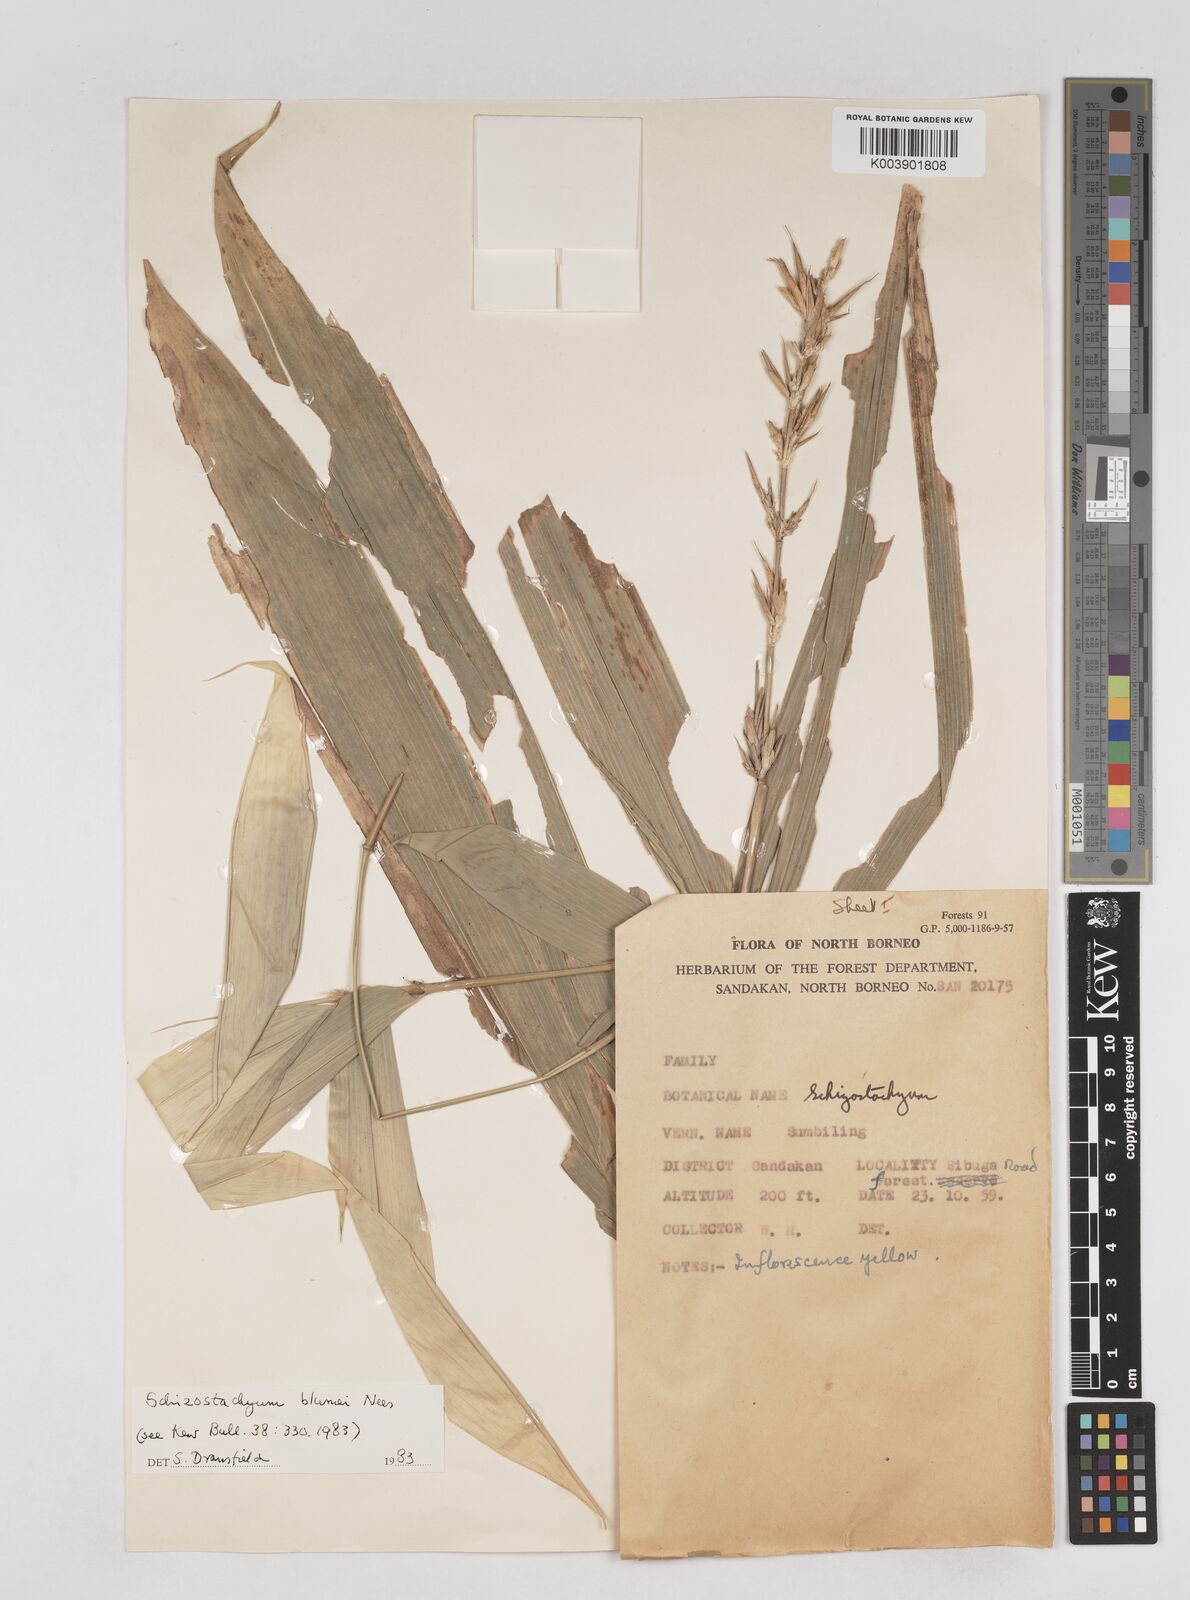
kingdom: Plantae
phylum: Tracheophyta
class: Liliopsida
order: Poales
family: Poaceae
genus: Schizostachyum
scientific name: Schizostachyum blumei
